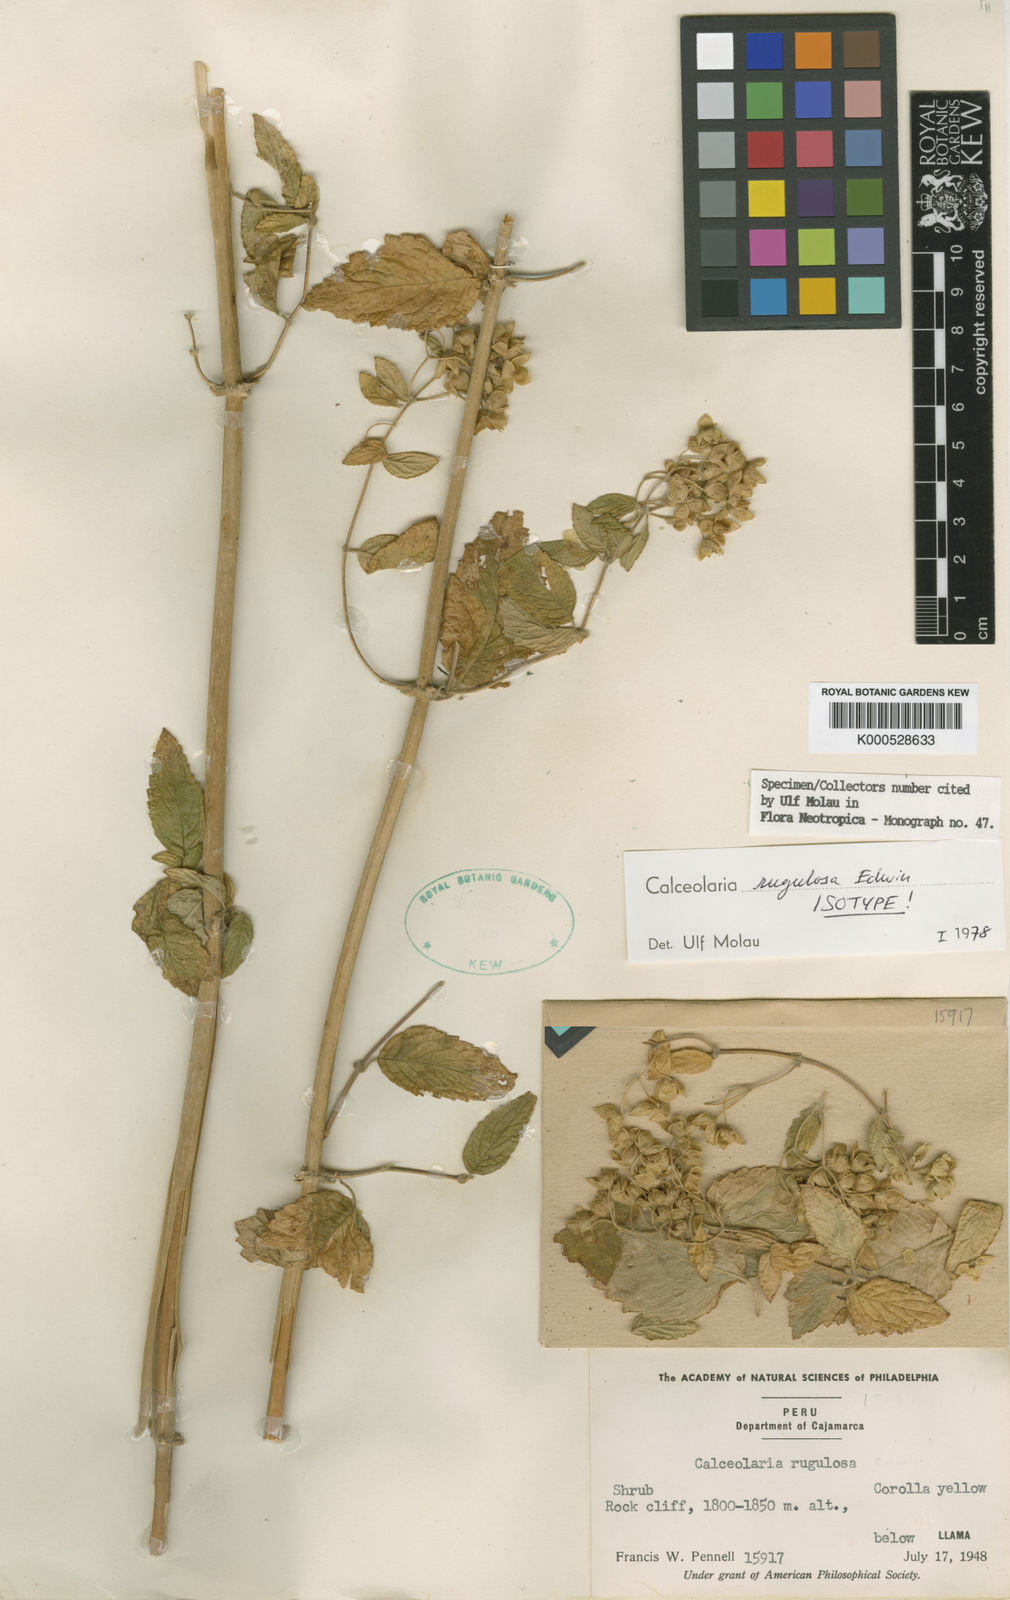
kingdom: Plantae
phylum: Tracheophyta
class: Magnoliopsida
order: Lamiales
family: Calceolariaceae
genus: Calceolaria
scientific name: Calceolaria rugulosa
